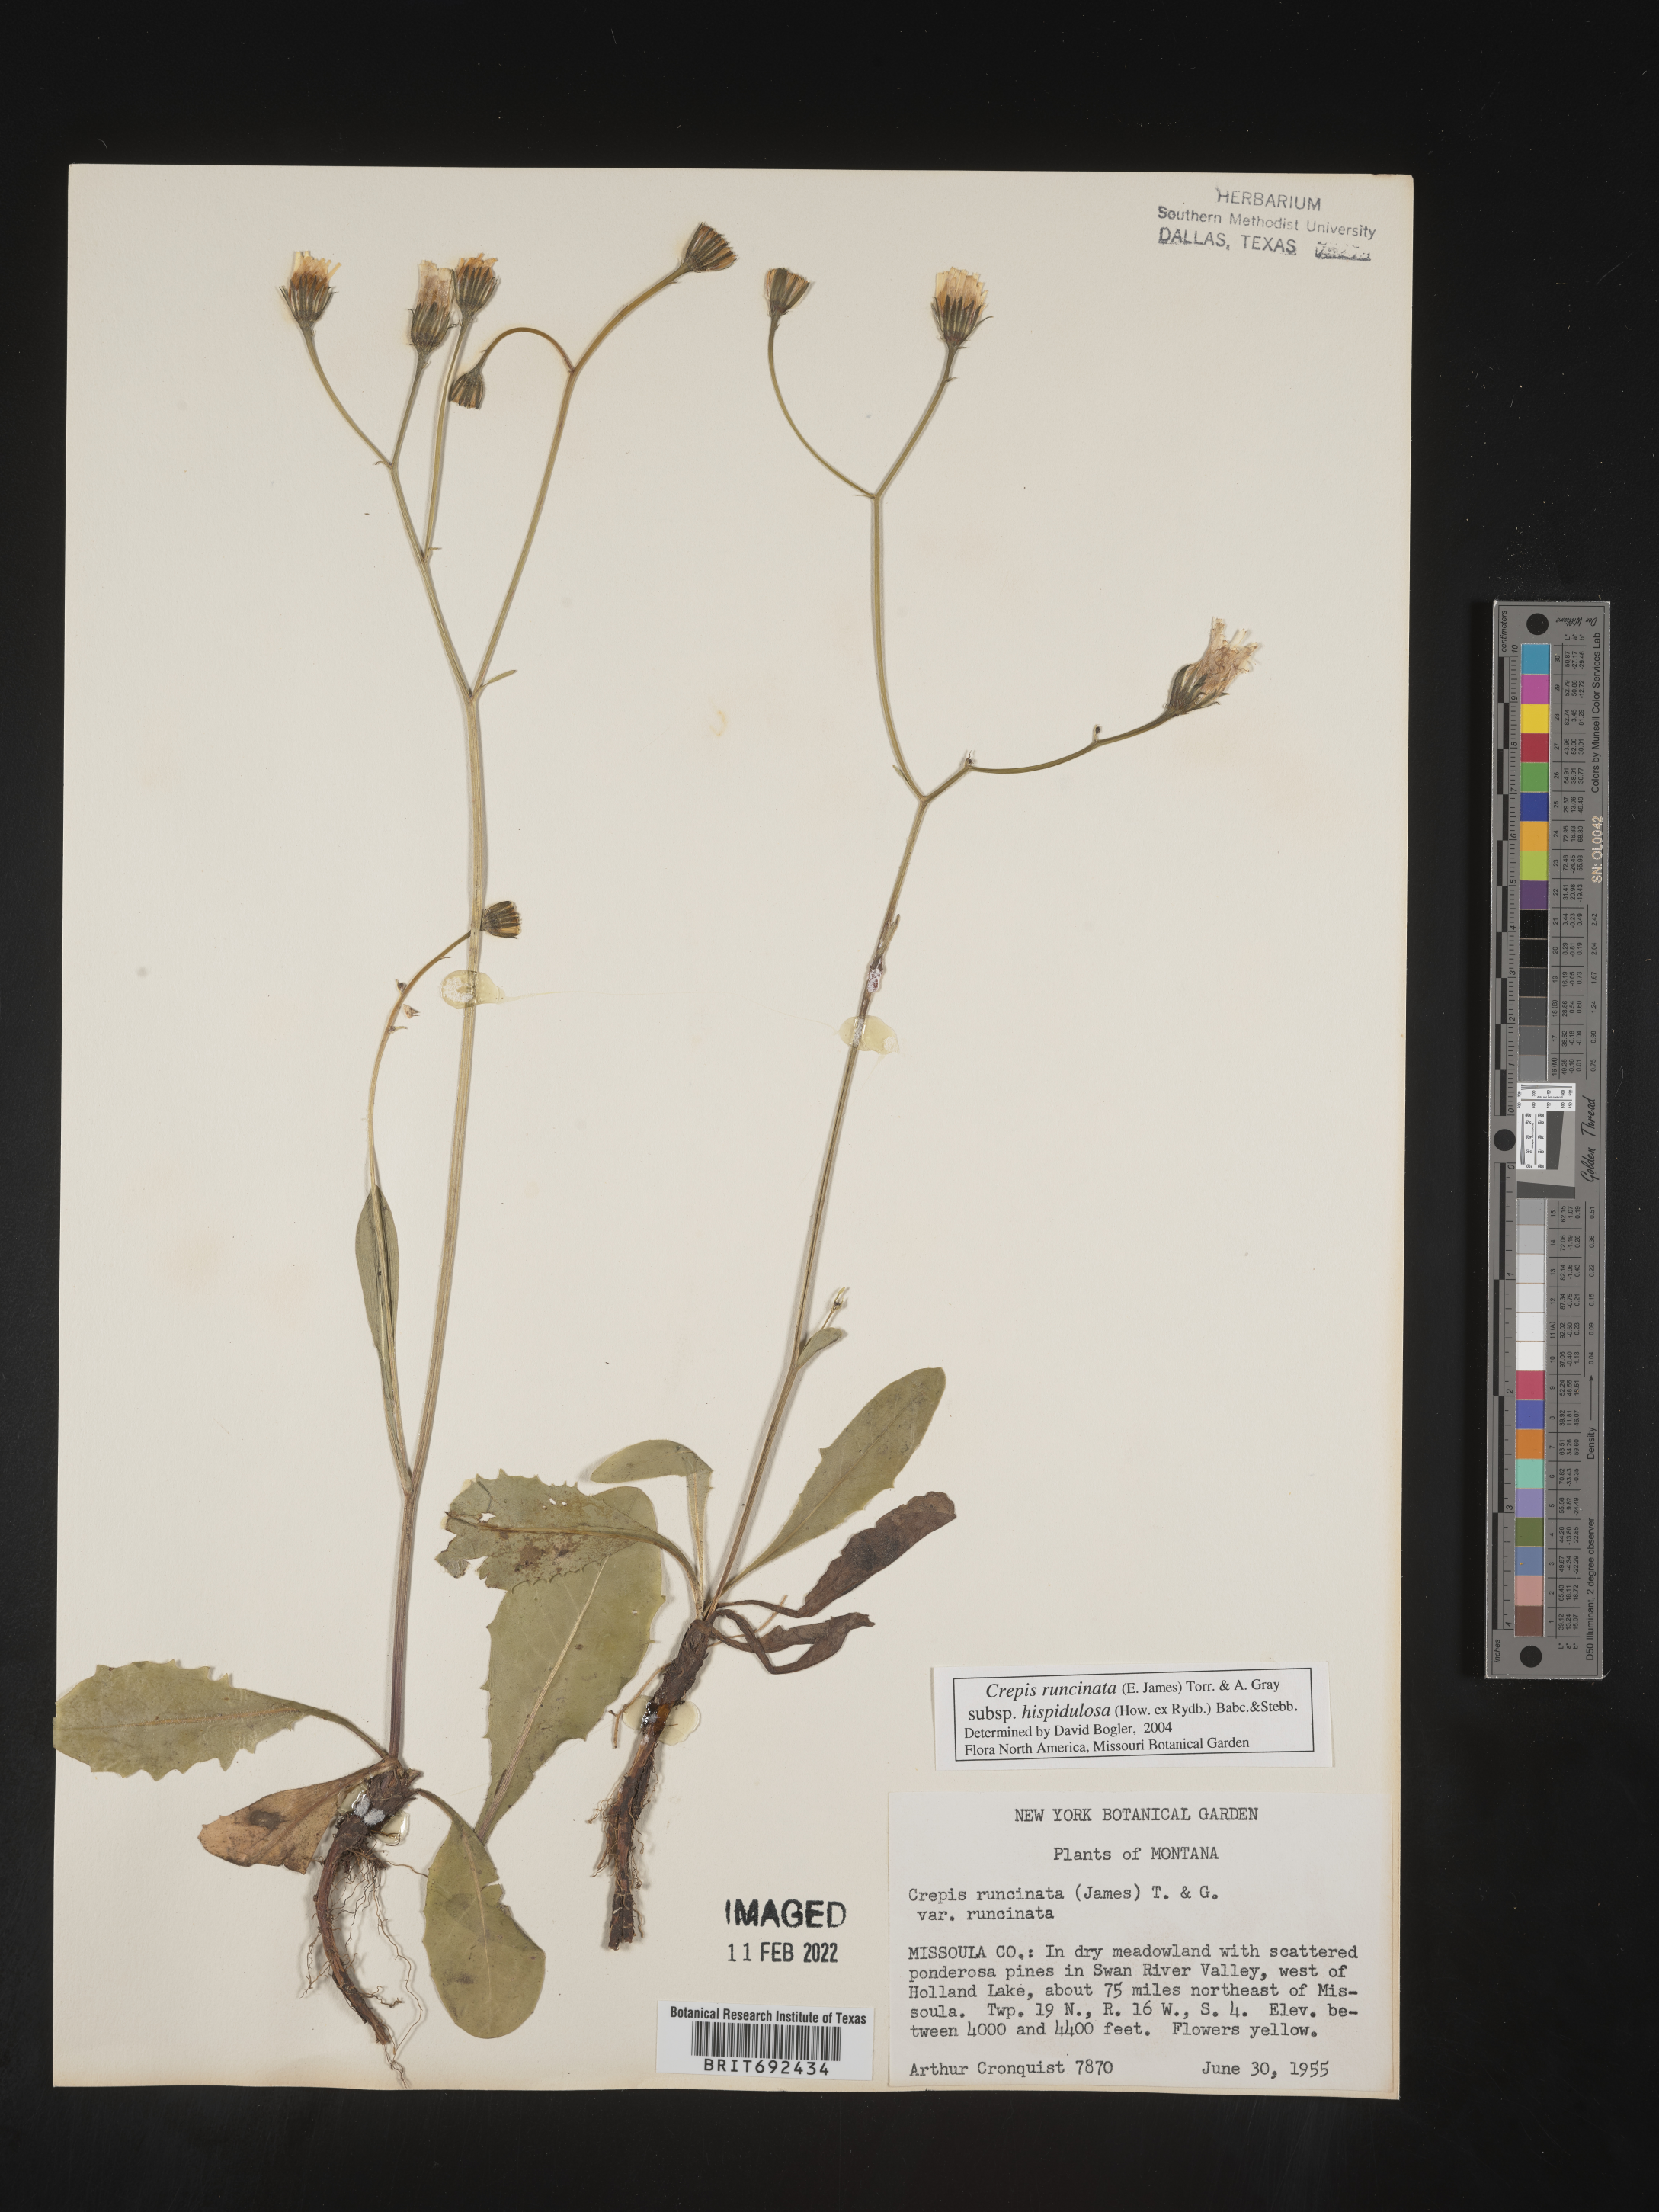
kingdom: Plantae
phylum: Tracheophyta
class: Magnoliopsida
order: Asterales
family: Asteraceae
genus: Crepis
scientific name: Crepis
